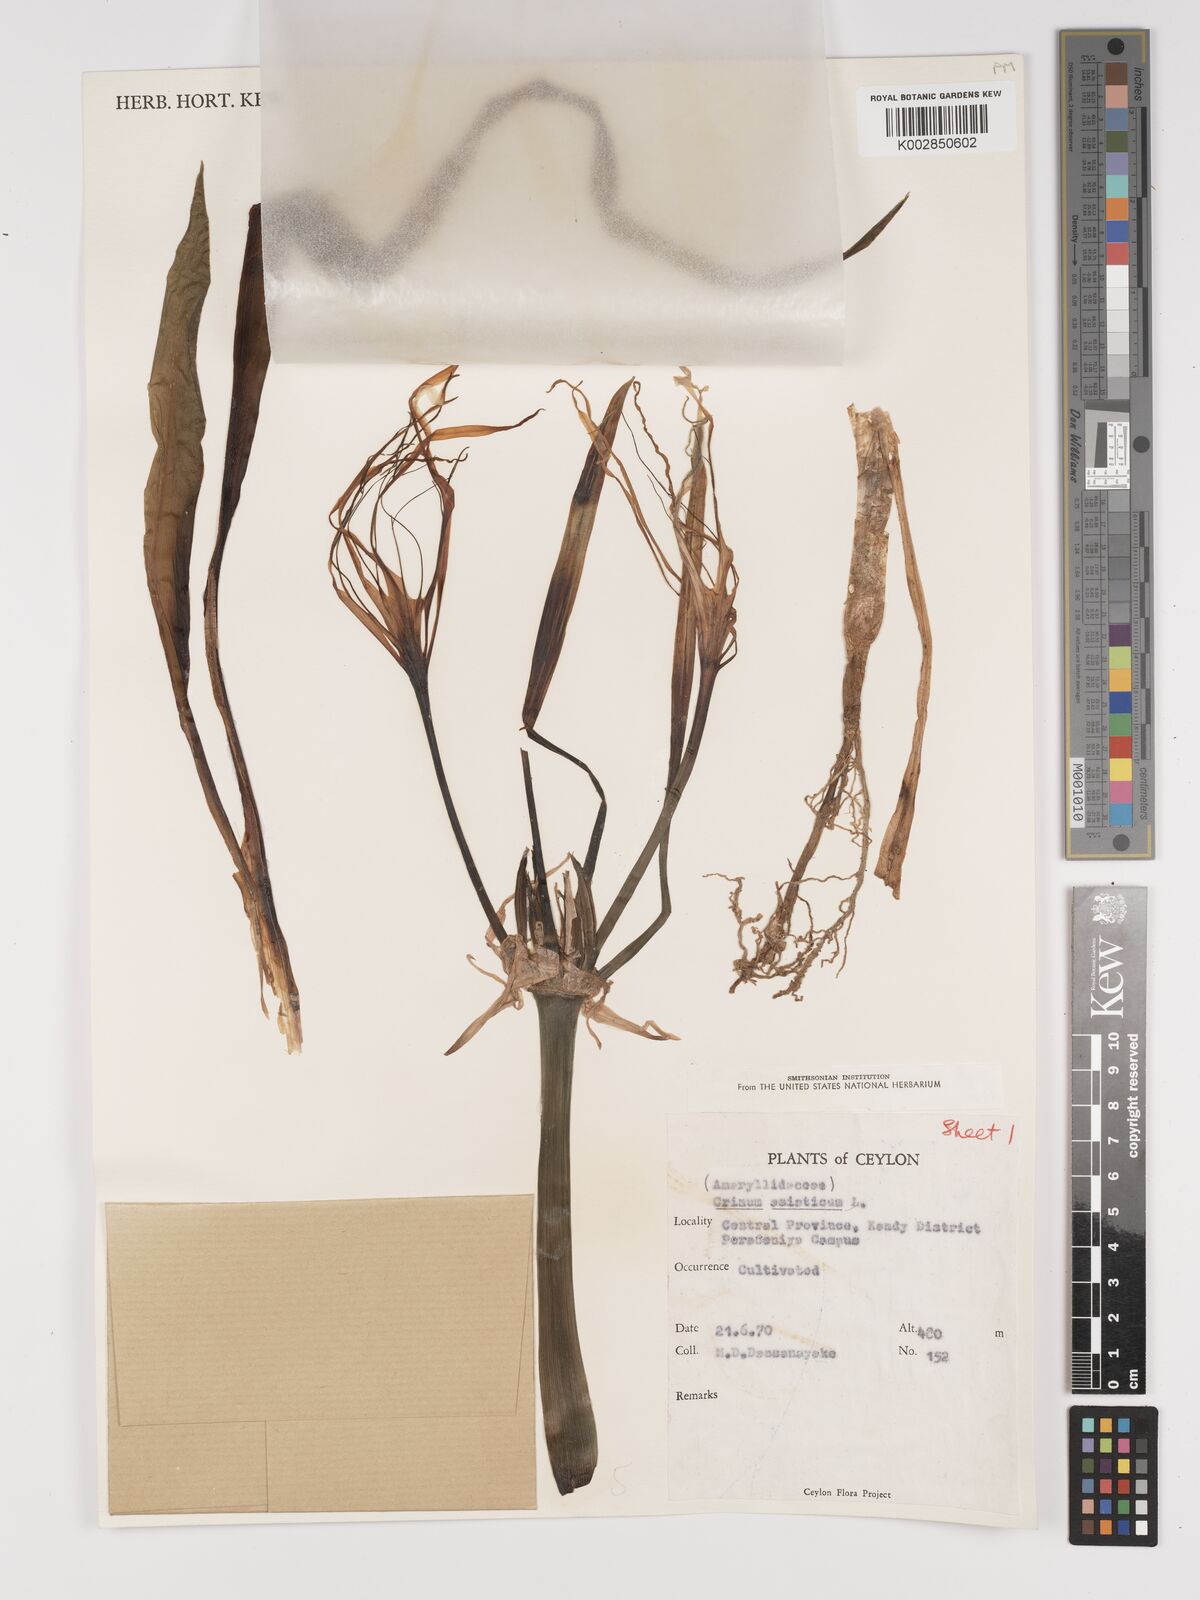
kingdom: Plantae
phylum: Tracheophyta
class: Liliopsida
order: Asparagales
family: Amaryllidaceae
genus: Crinum
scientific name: Crinum asiaticum
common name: Poisonbulb
